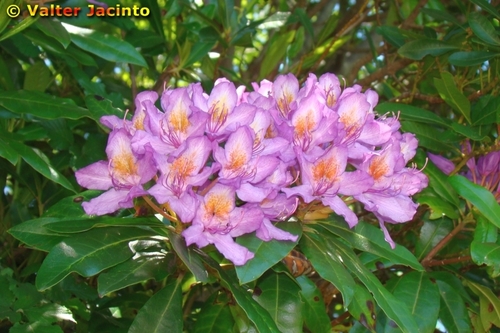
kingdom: Plantae
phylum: Tracheophyta
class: Magnoliopsida
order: Ericales
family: Ericaceae
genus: Rhododendron
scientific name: Rhododendron ponticum
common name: Rhododendron
